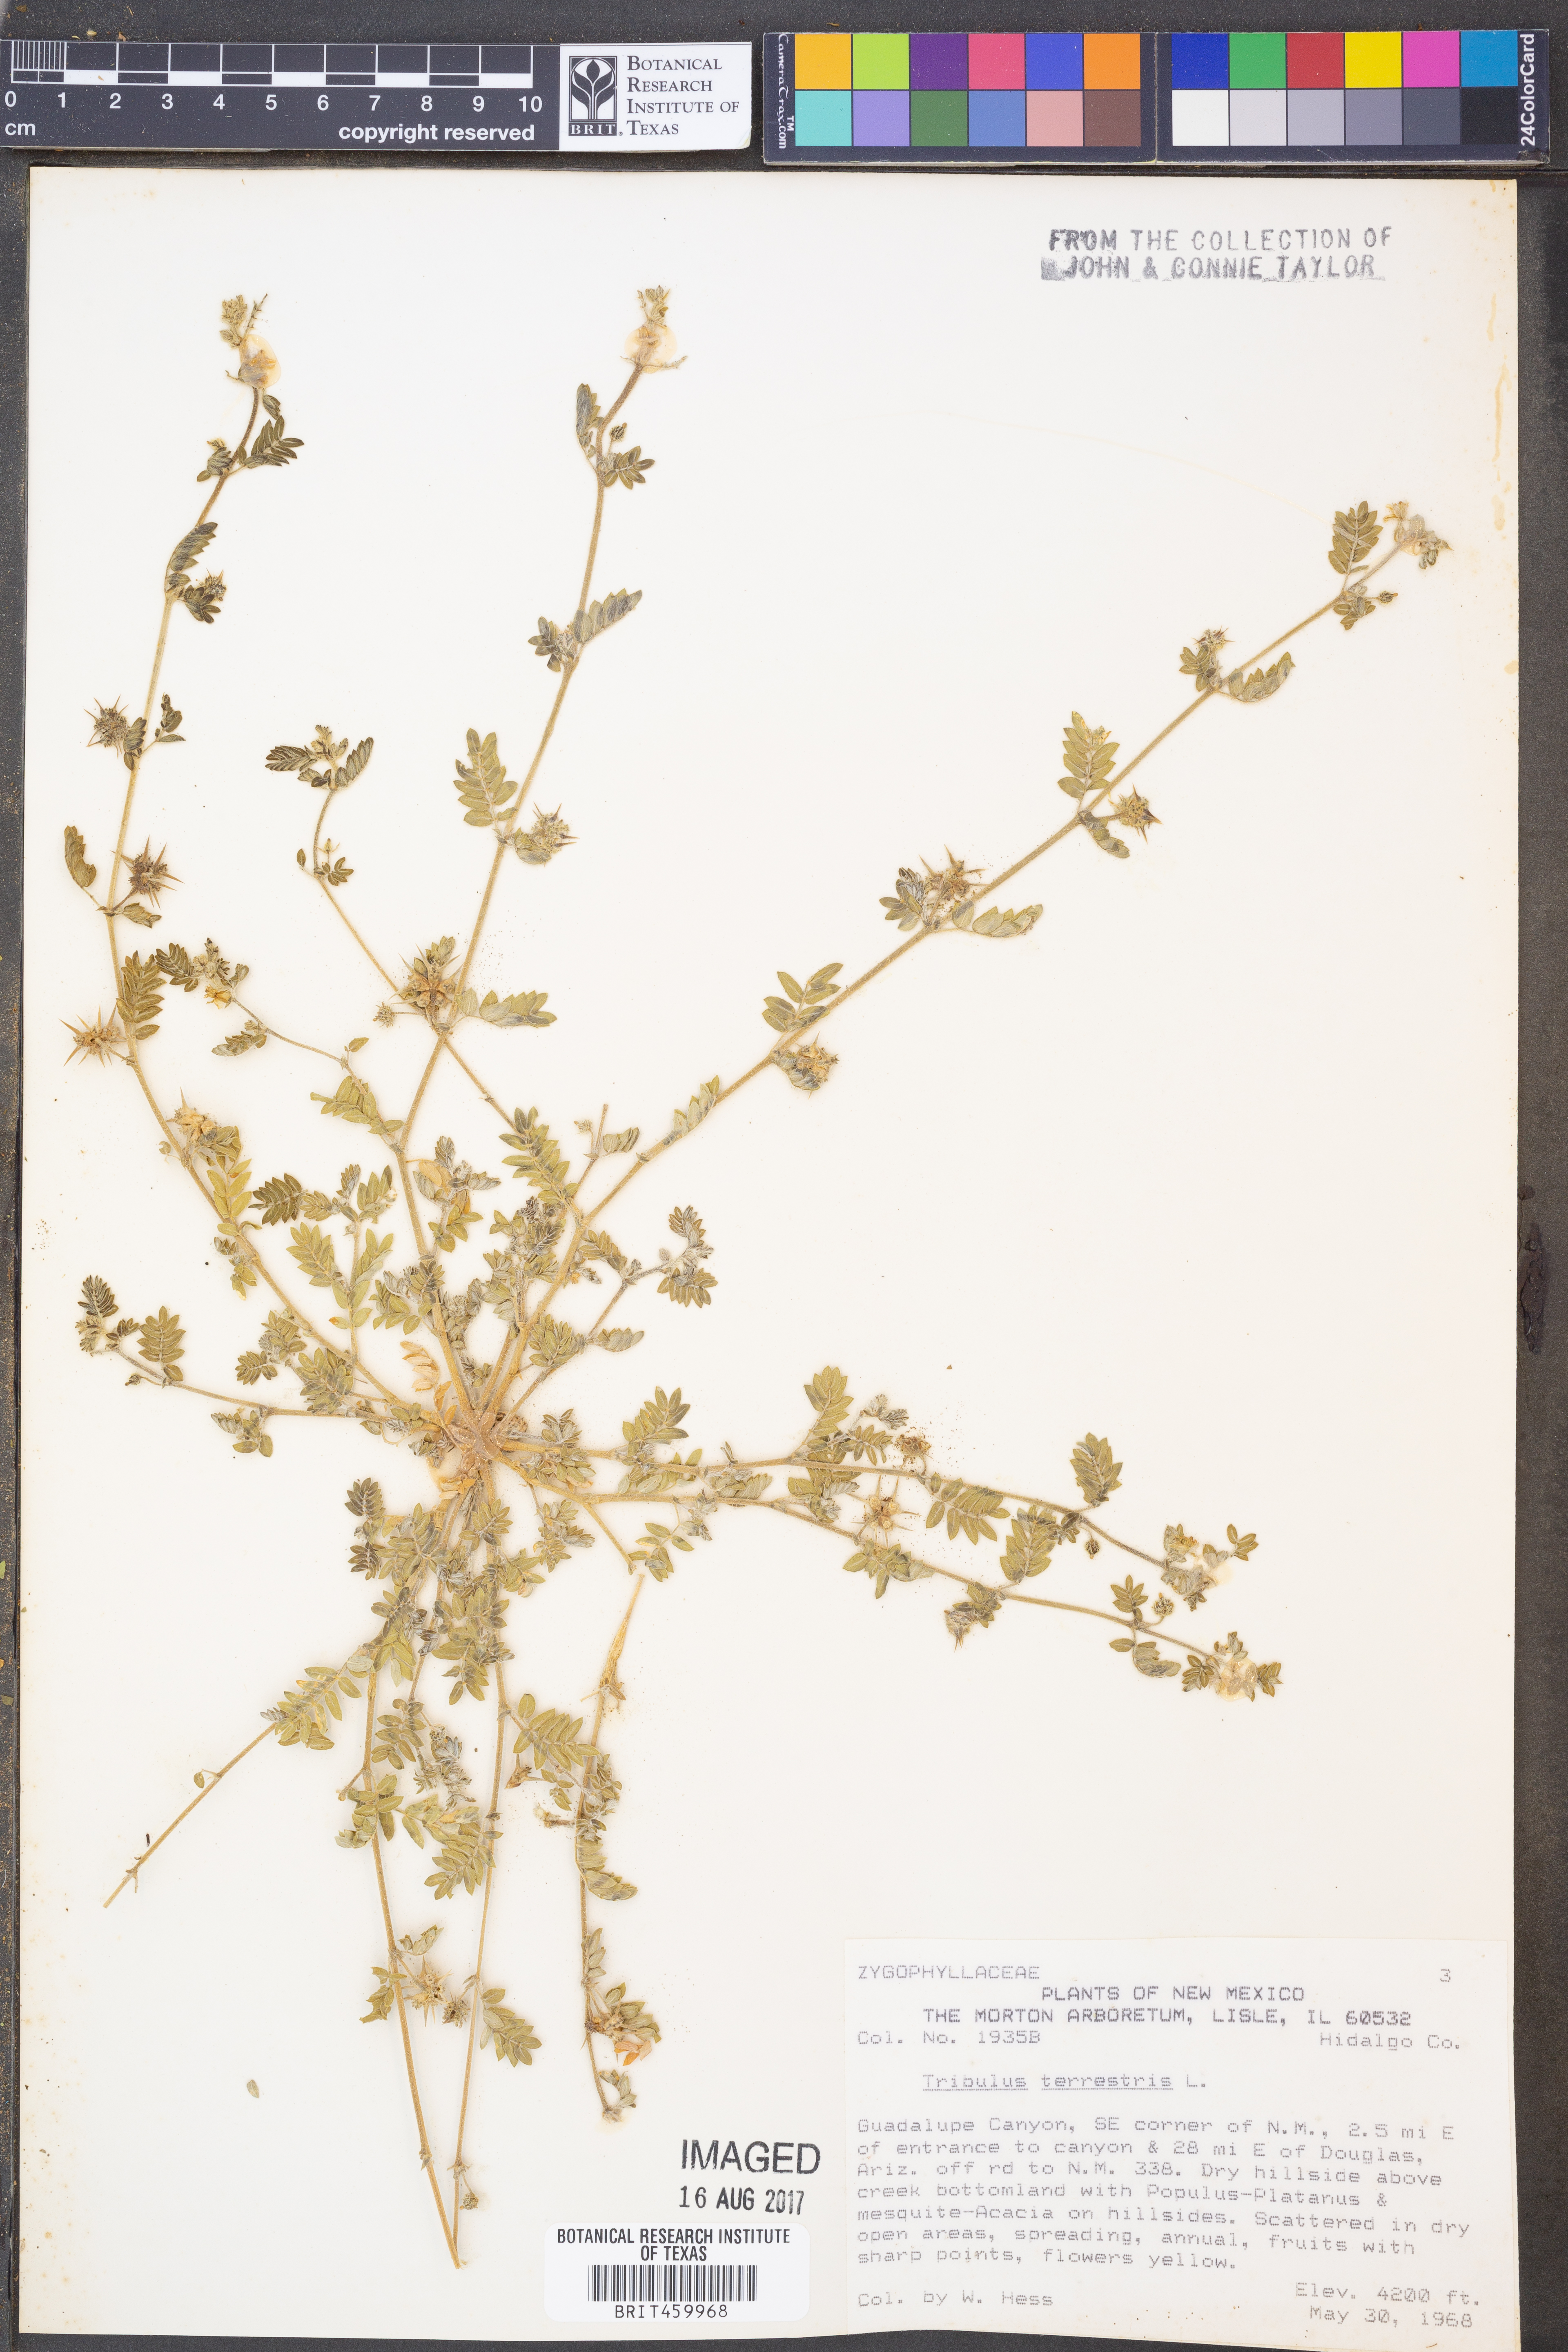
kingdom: Plantae
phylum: Tracheophyta
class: Magnoliopsida
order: Zygophyllales
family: Zygophyllaceae
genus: Tribulus
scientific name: Tribulus terrestris
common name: Puncturevine
